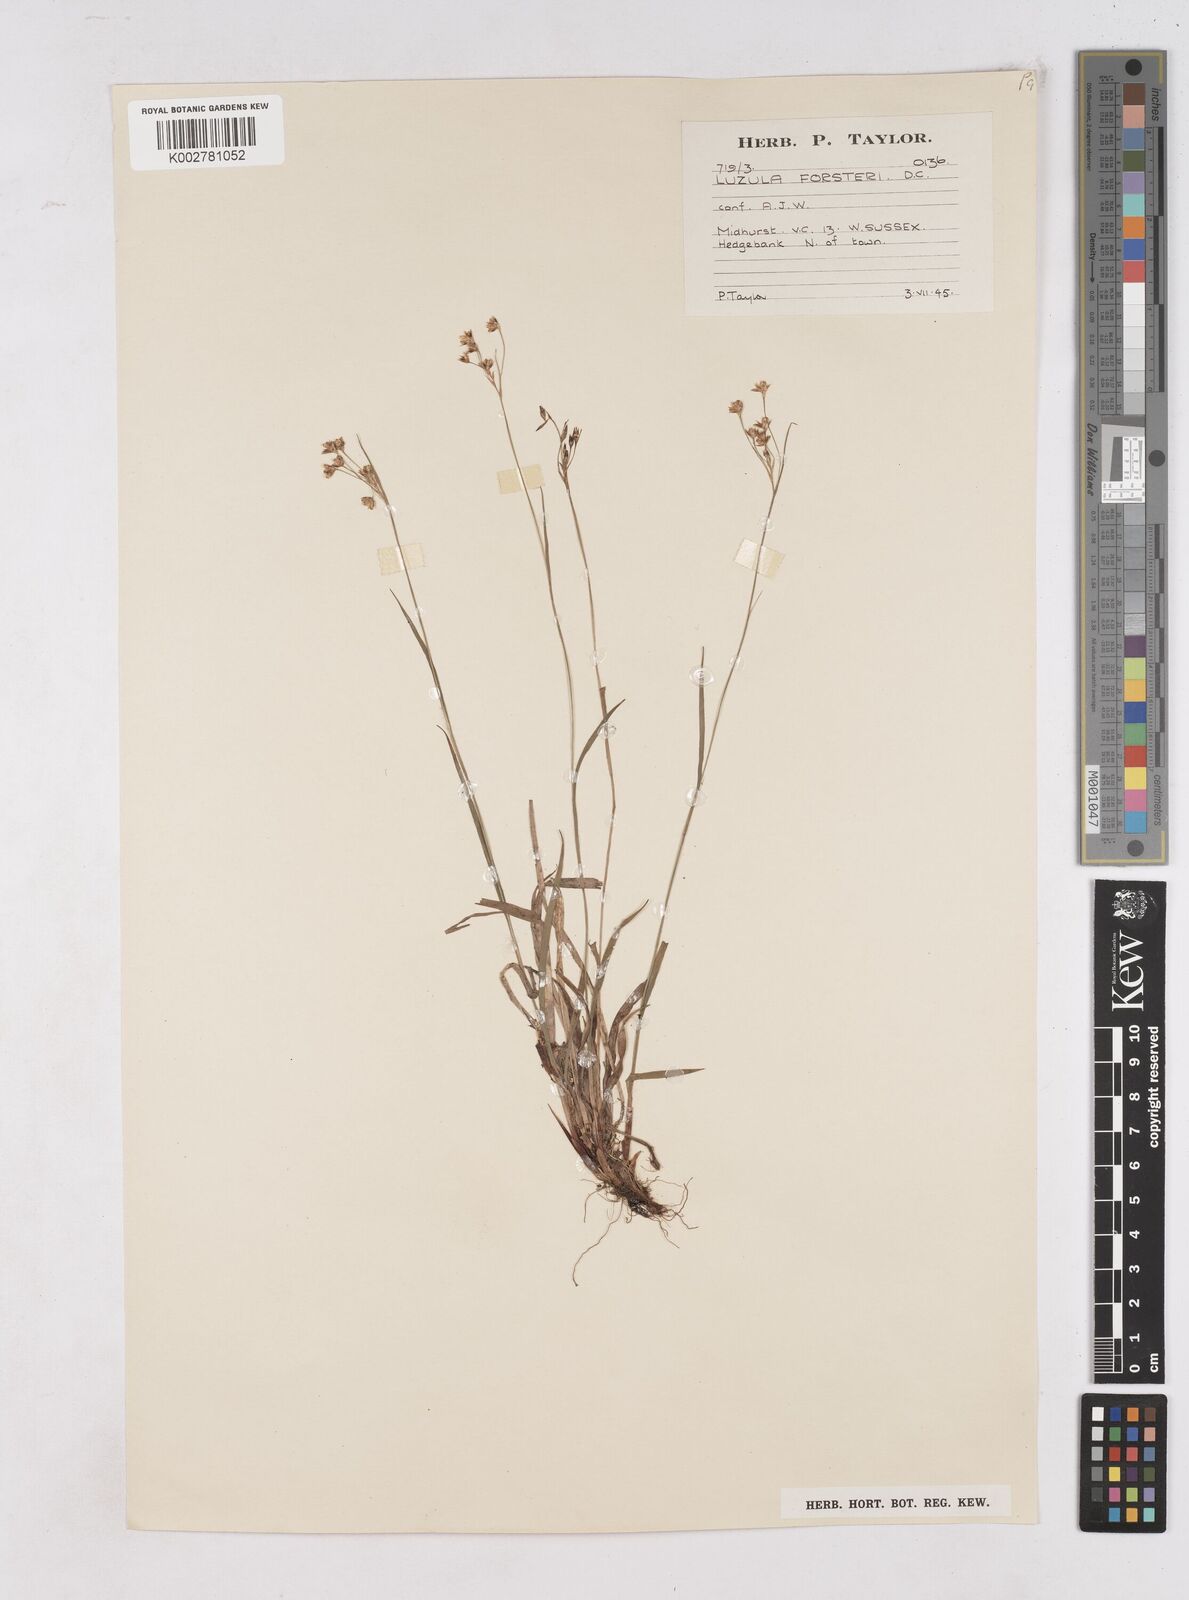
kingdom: Plantae
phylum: Tracheophyta
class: Liliopsida
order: Poales
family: Juncaceae
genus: Luzula
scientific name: Luzula forsteri
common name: Southern wood-rush
